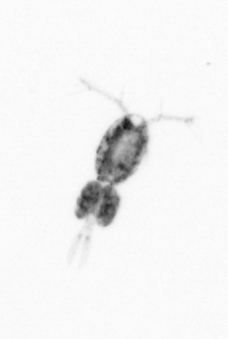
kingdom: Animalia
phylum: Arthropoda
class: Copepoda
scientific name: Copepoda
